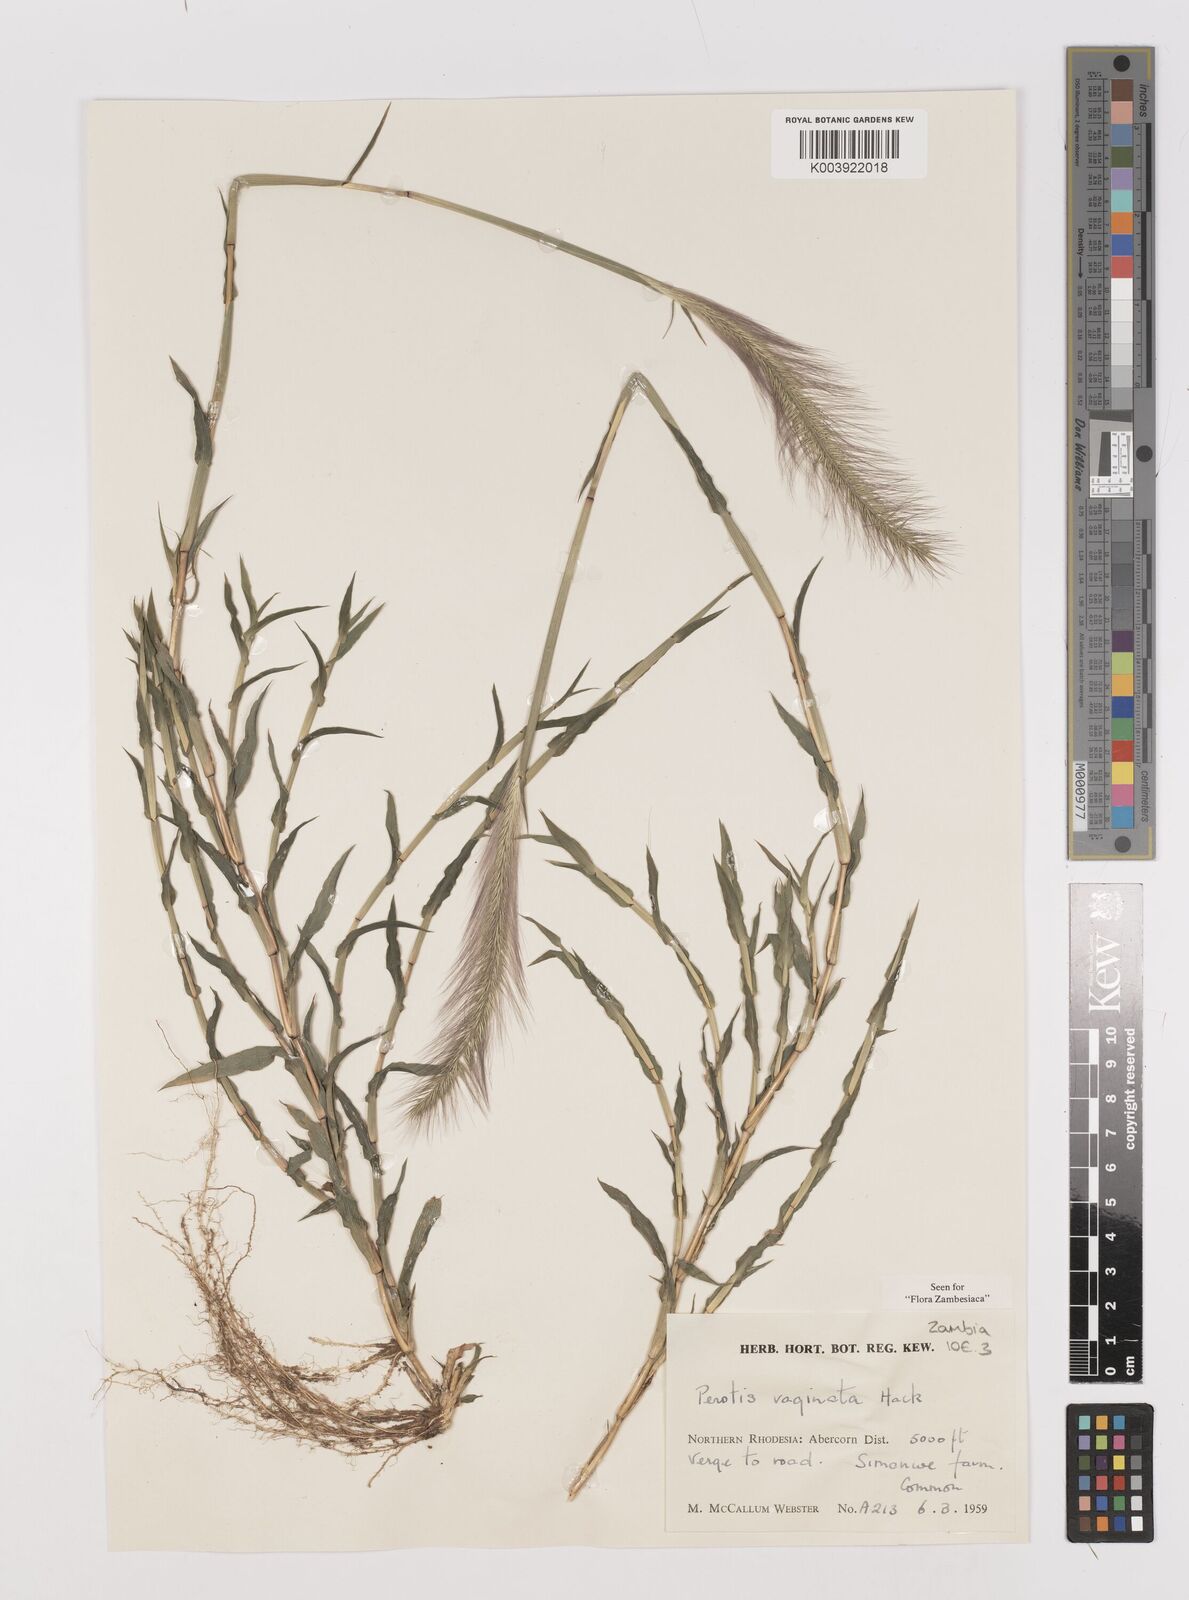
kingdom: Plantae
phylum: Tracheophyta
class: Liliopsida
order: Poales
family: Poaceae
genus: Perotis
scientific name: Perotis vaginata
